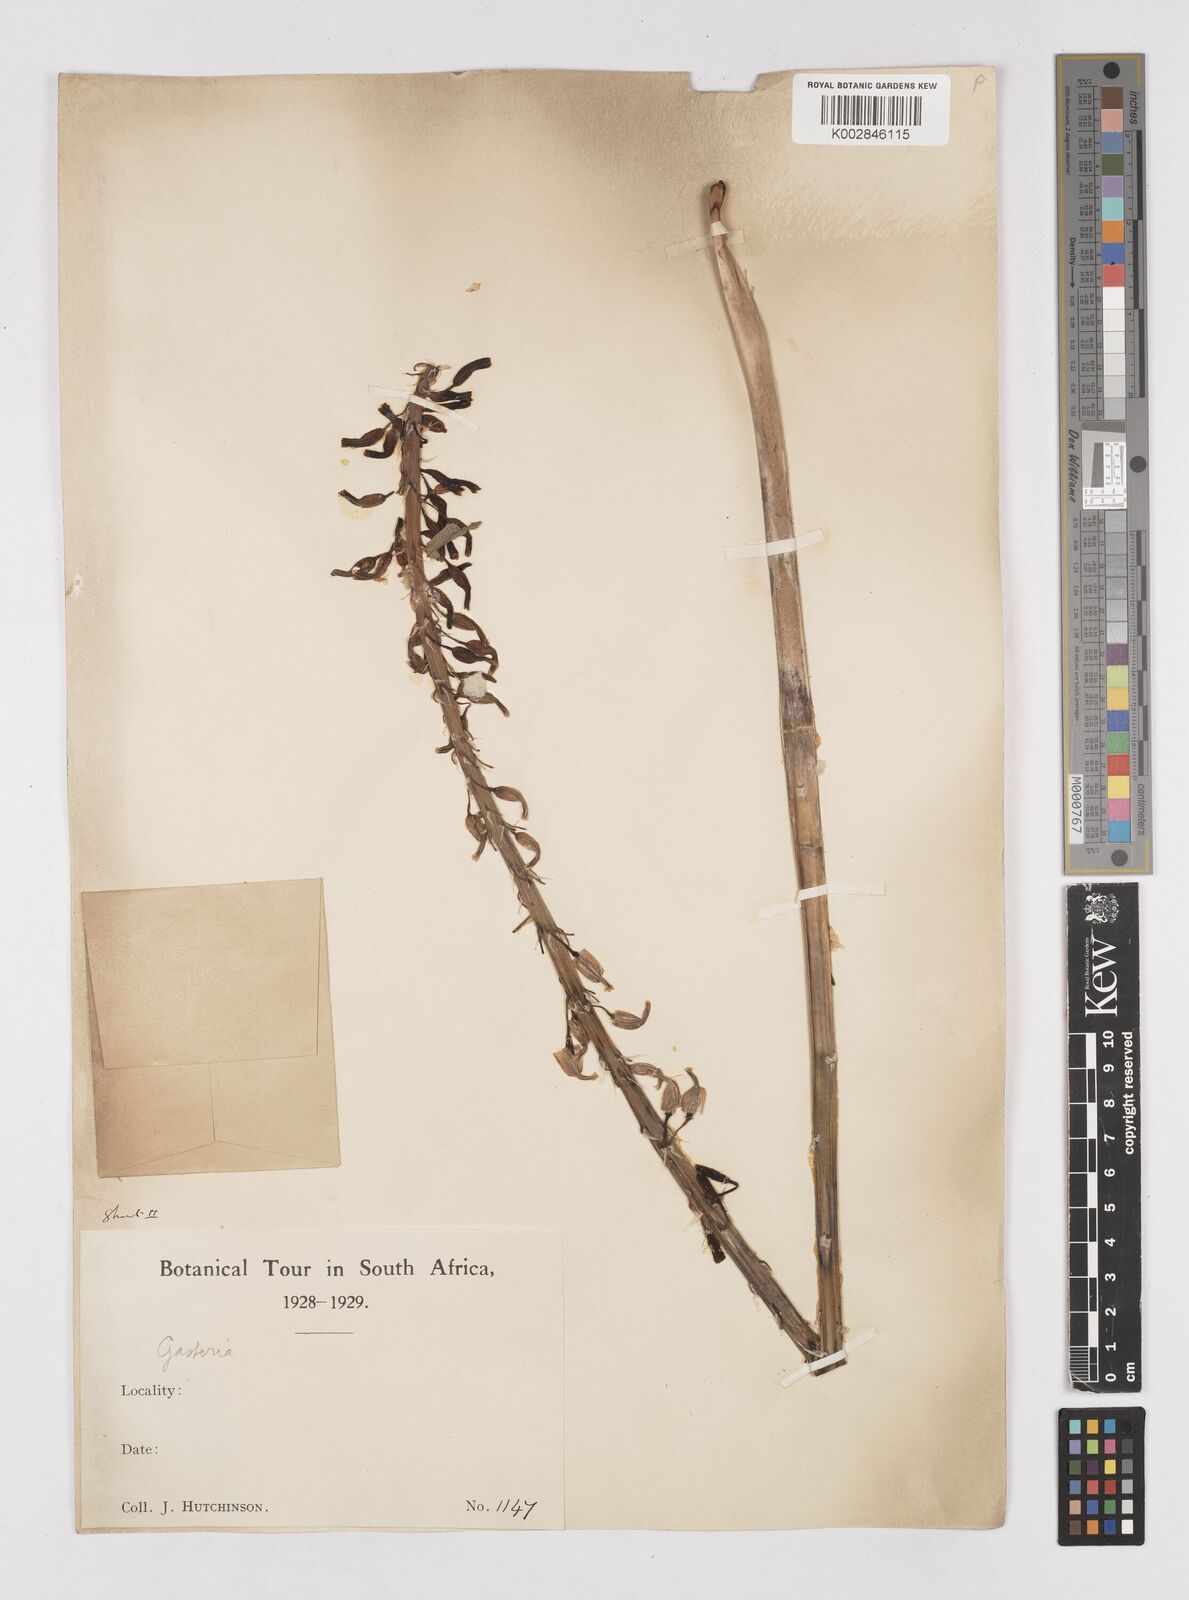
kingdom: Plantae
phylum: Tracheophyta
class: Liliopsida
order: Asparagales
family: Asphodelaceae
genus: Gasteria
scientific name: Gasteria
